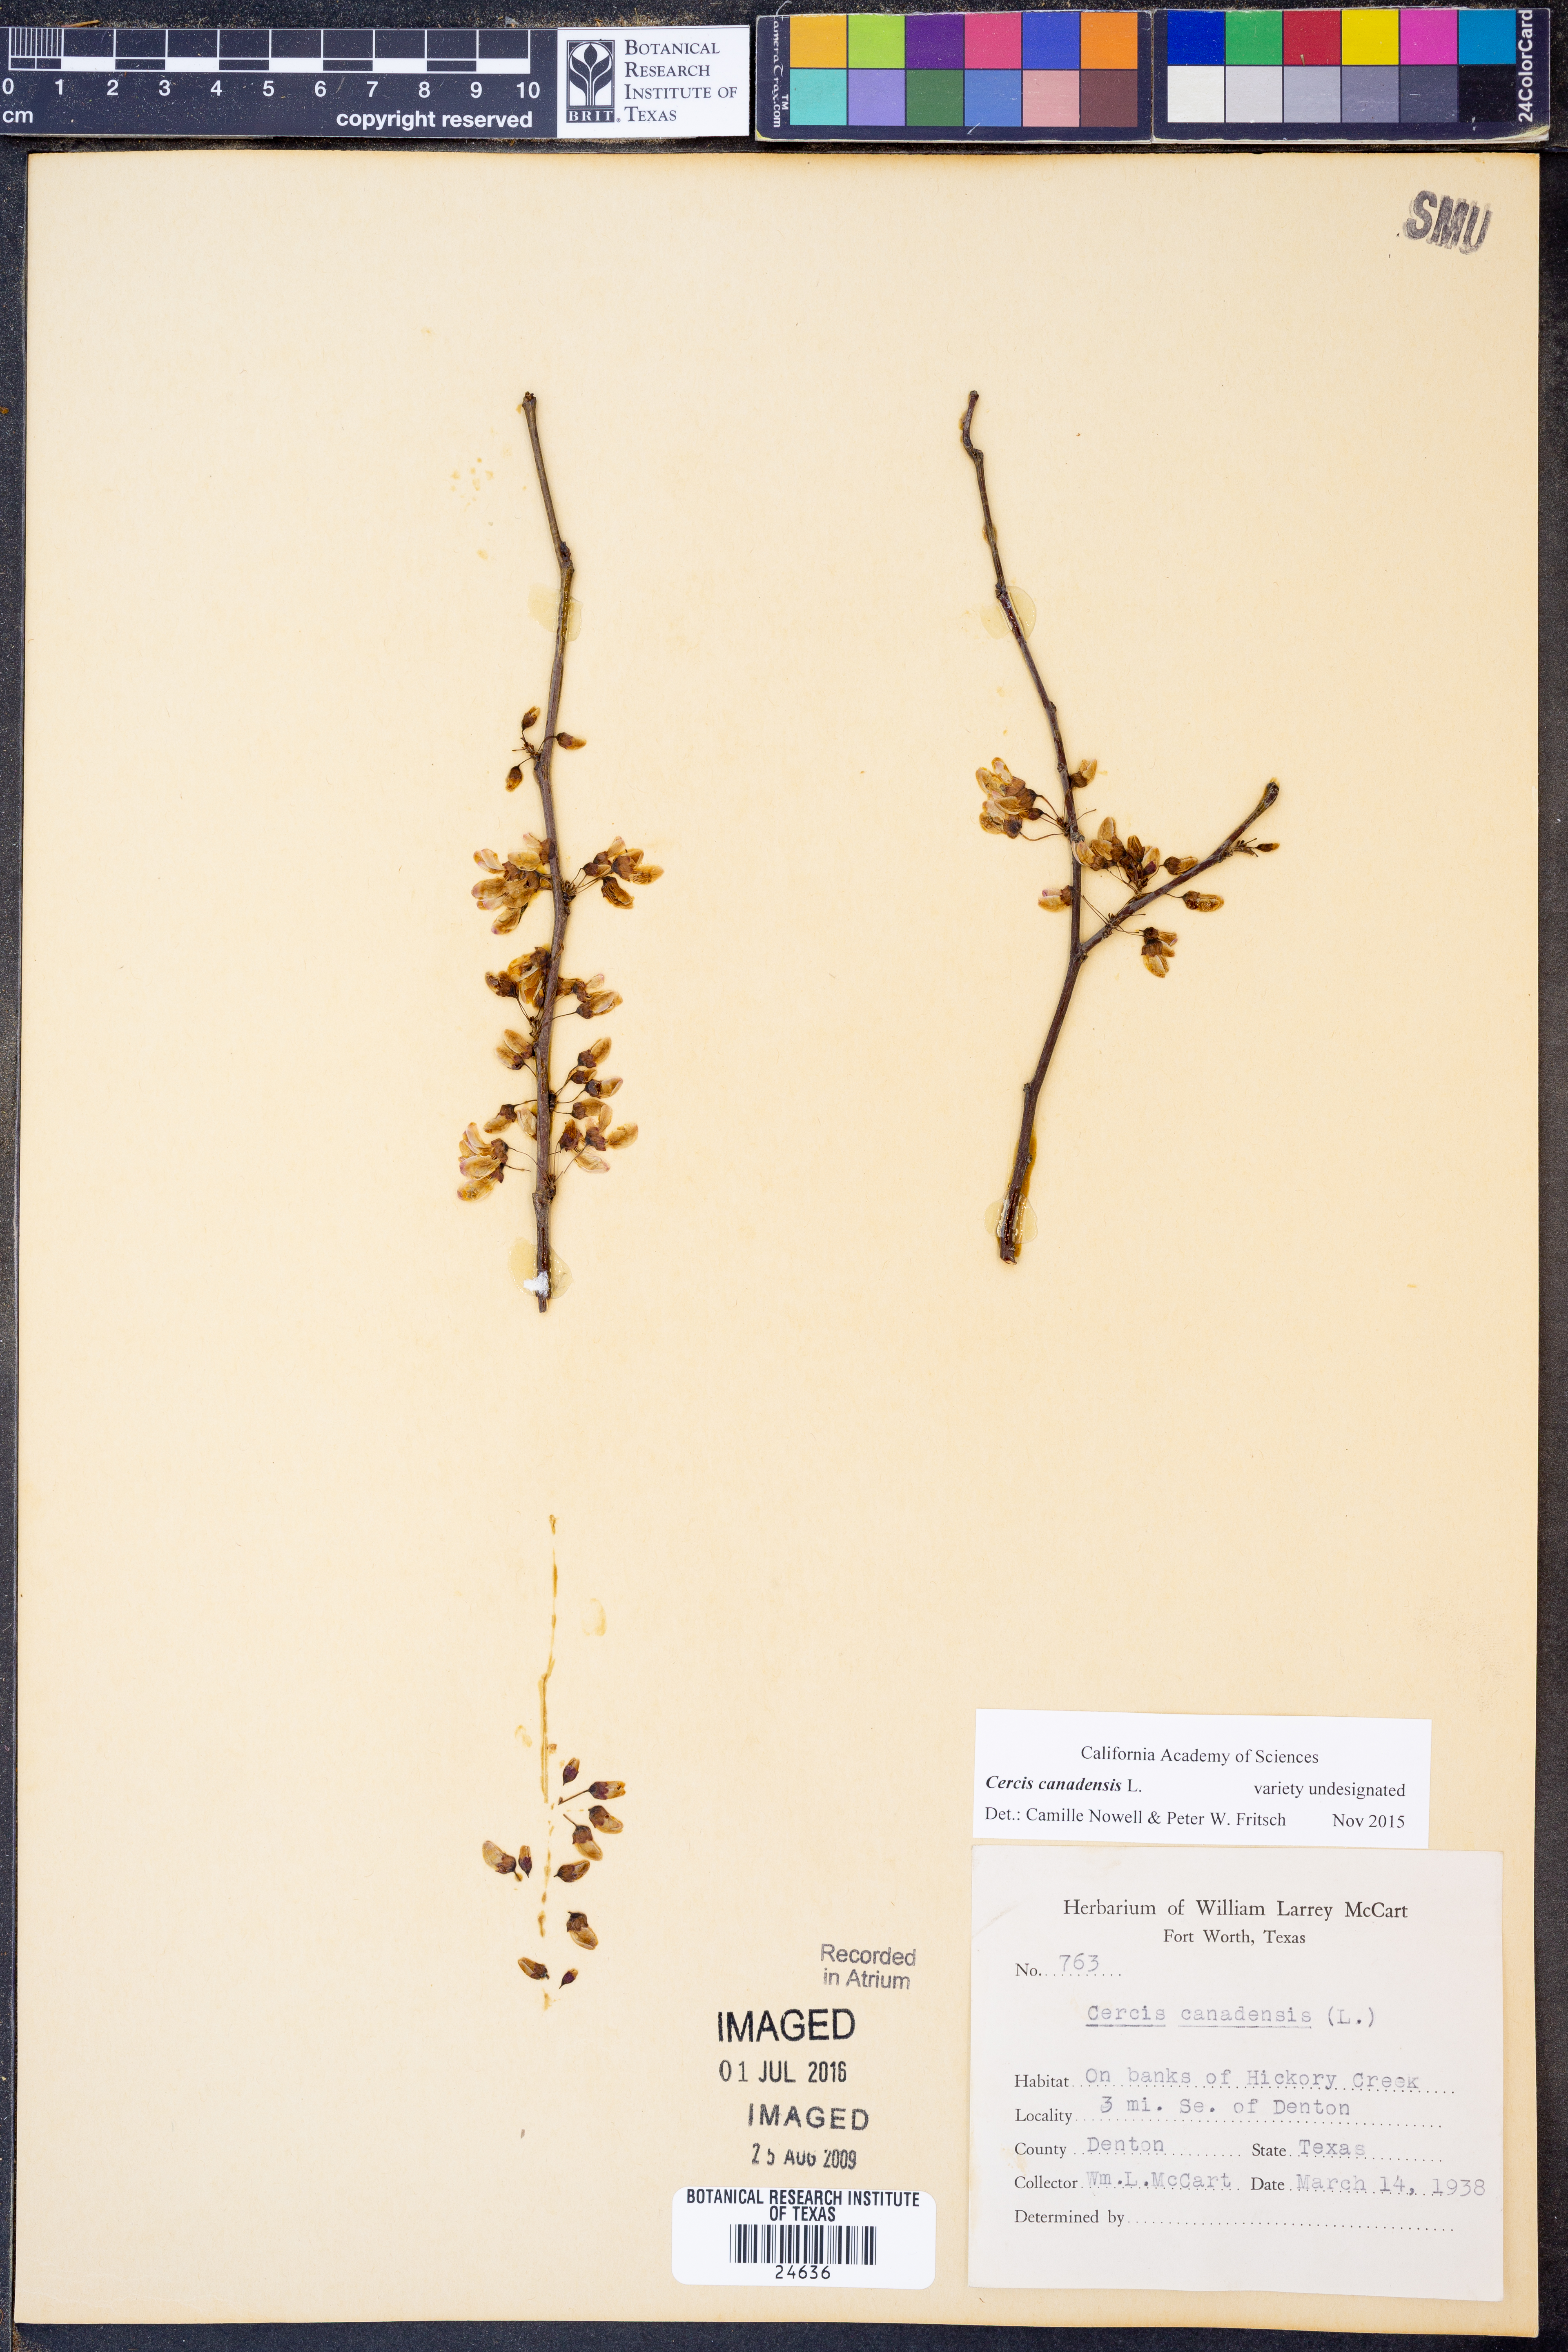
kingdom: Plantae
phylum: Tracheophyta
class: Magnoliopsida
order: Fabales
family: Fabaceae
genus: Cercis
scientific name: Cercis canadensis
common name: Eastern redbud
